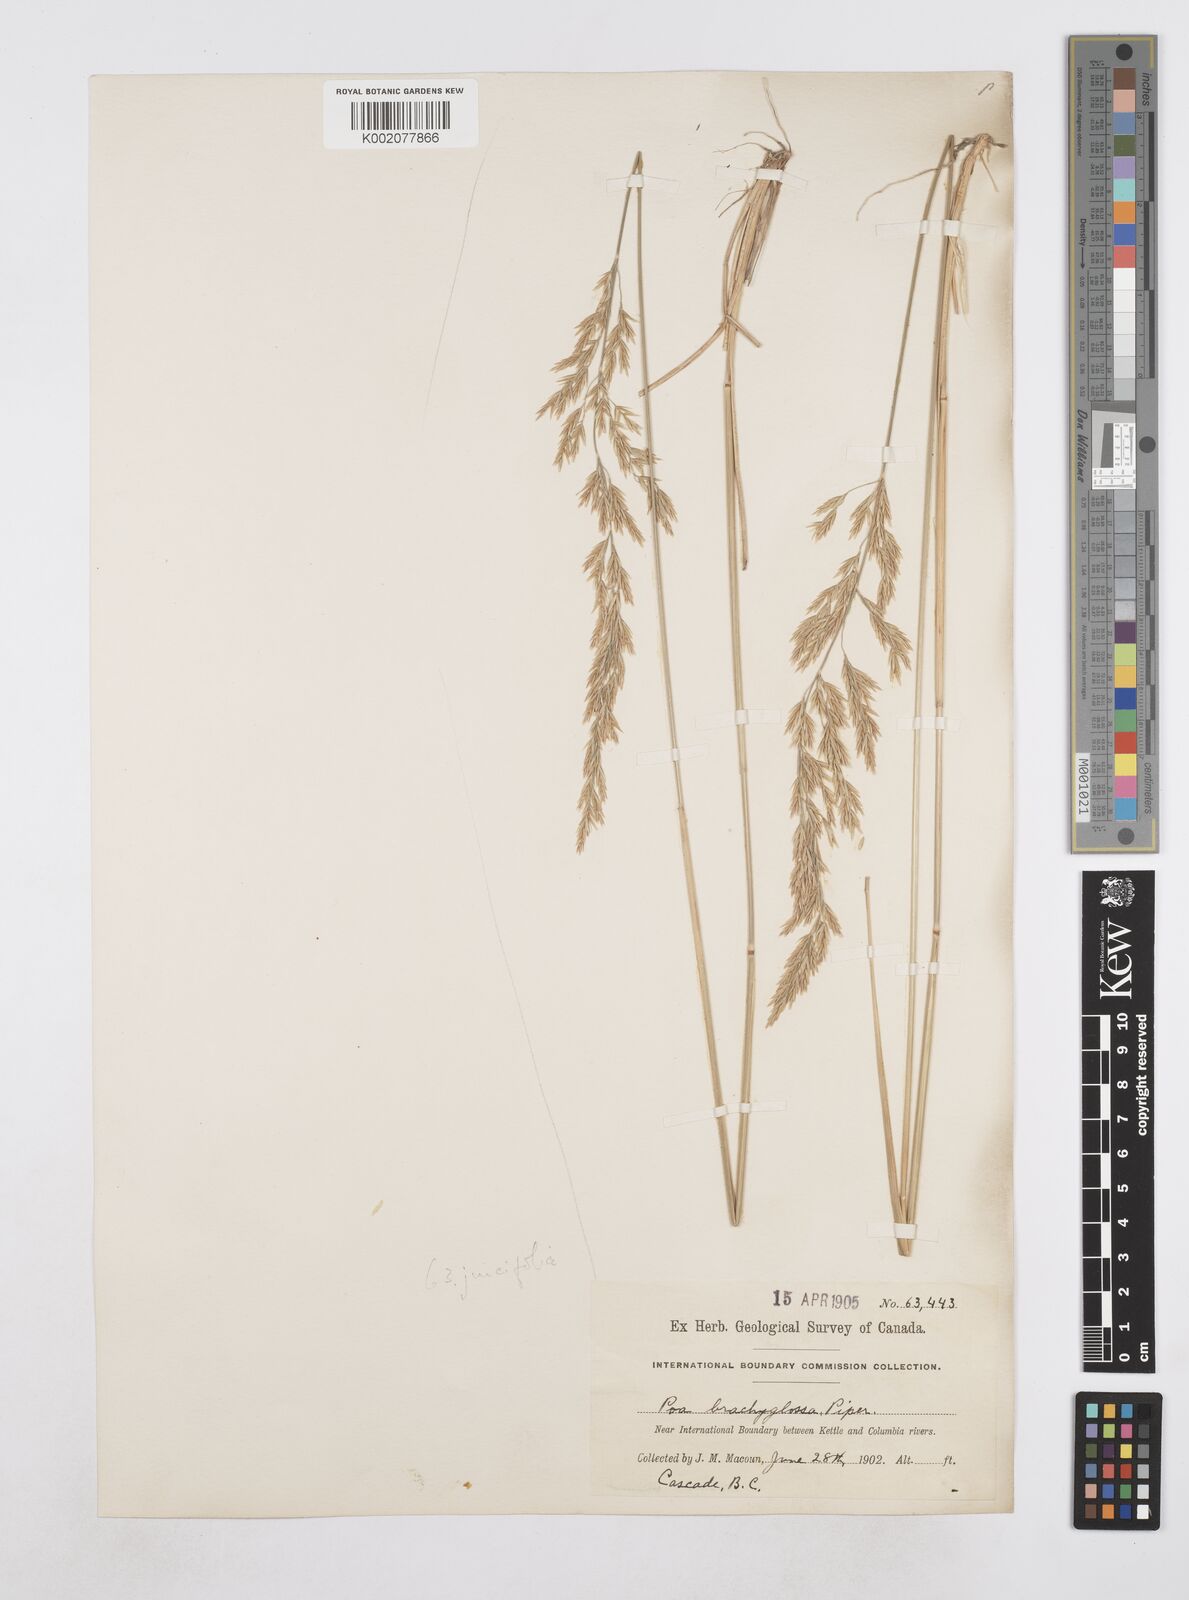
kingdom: Plantae
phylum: Tracheophyta
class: Liliopsida
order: Poales
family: Poaceae
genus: Poa
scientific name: Poa secunda
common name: Sandberg bluegrass
